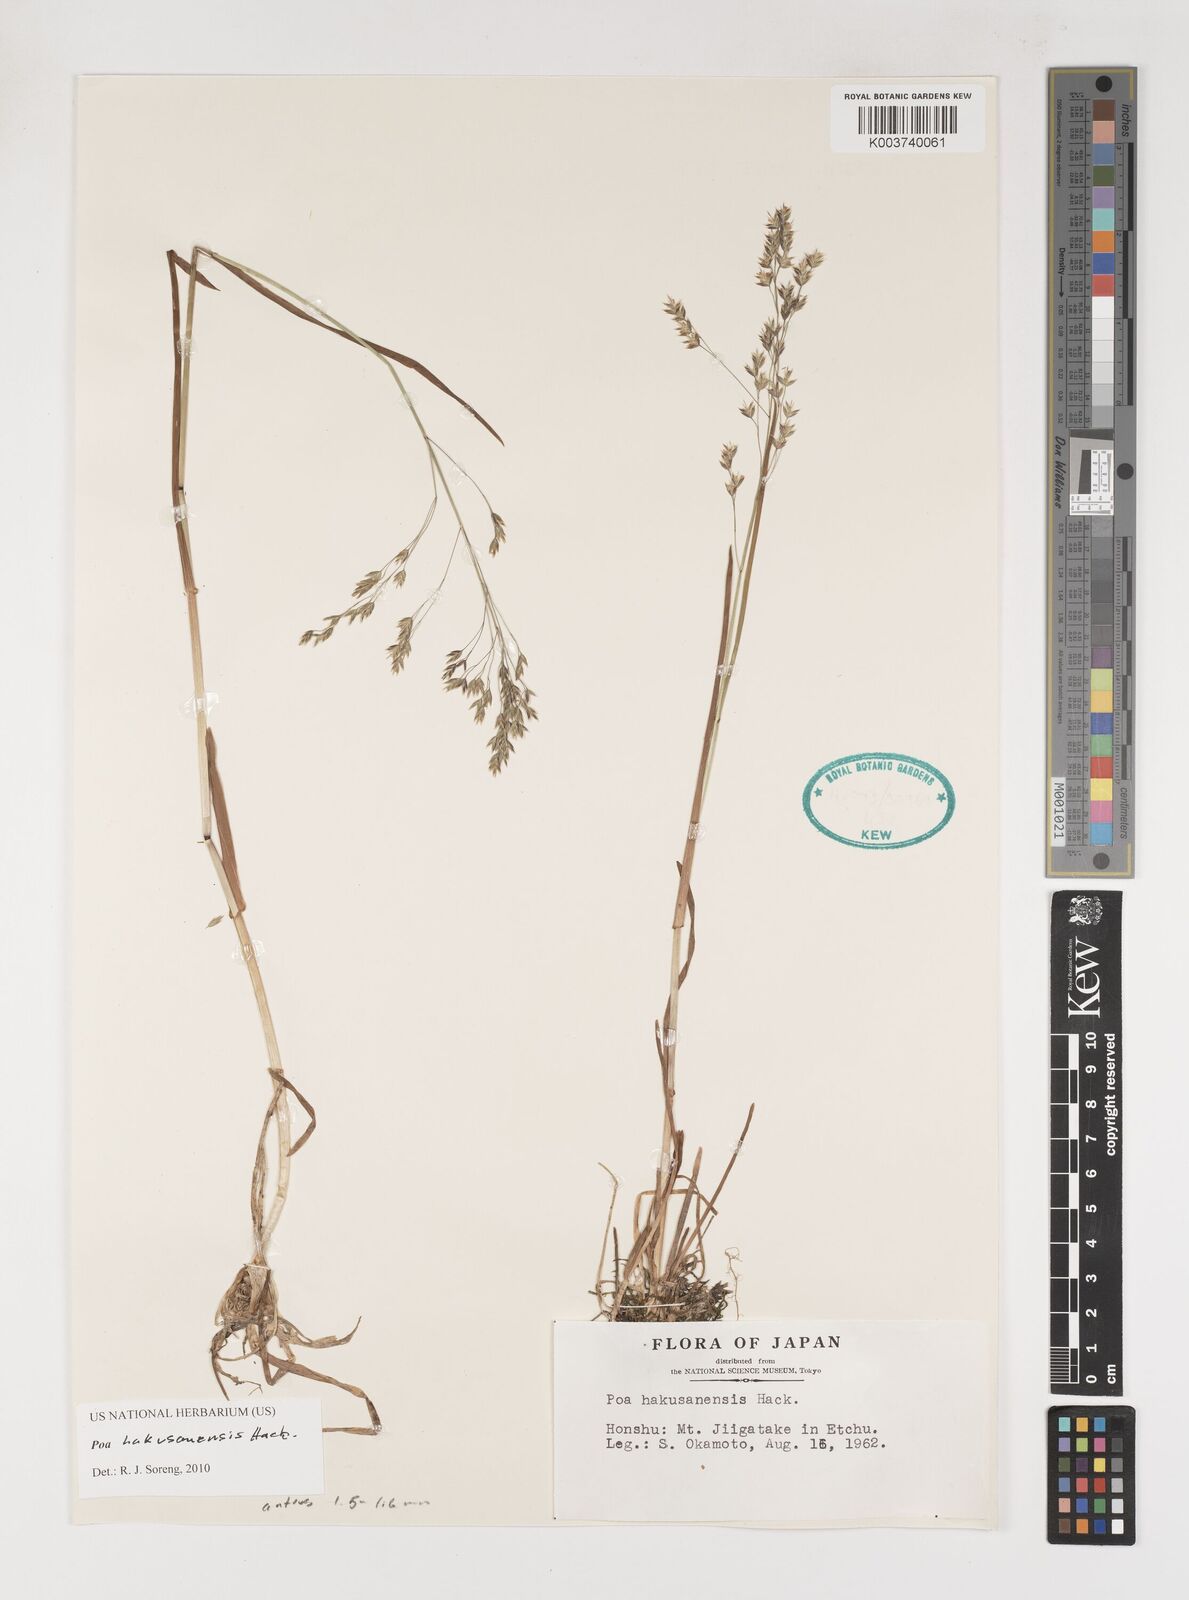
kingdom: Plantae
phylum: Tracheophyta
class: Liliopsida
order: Poales
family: Poaceae
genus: Poa
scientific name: Poa hakusanensis
